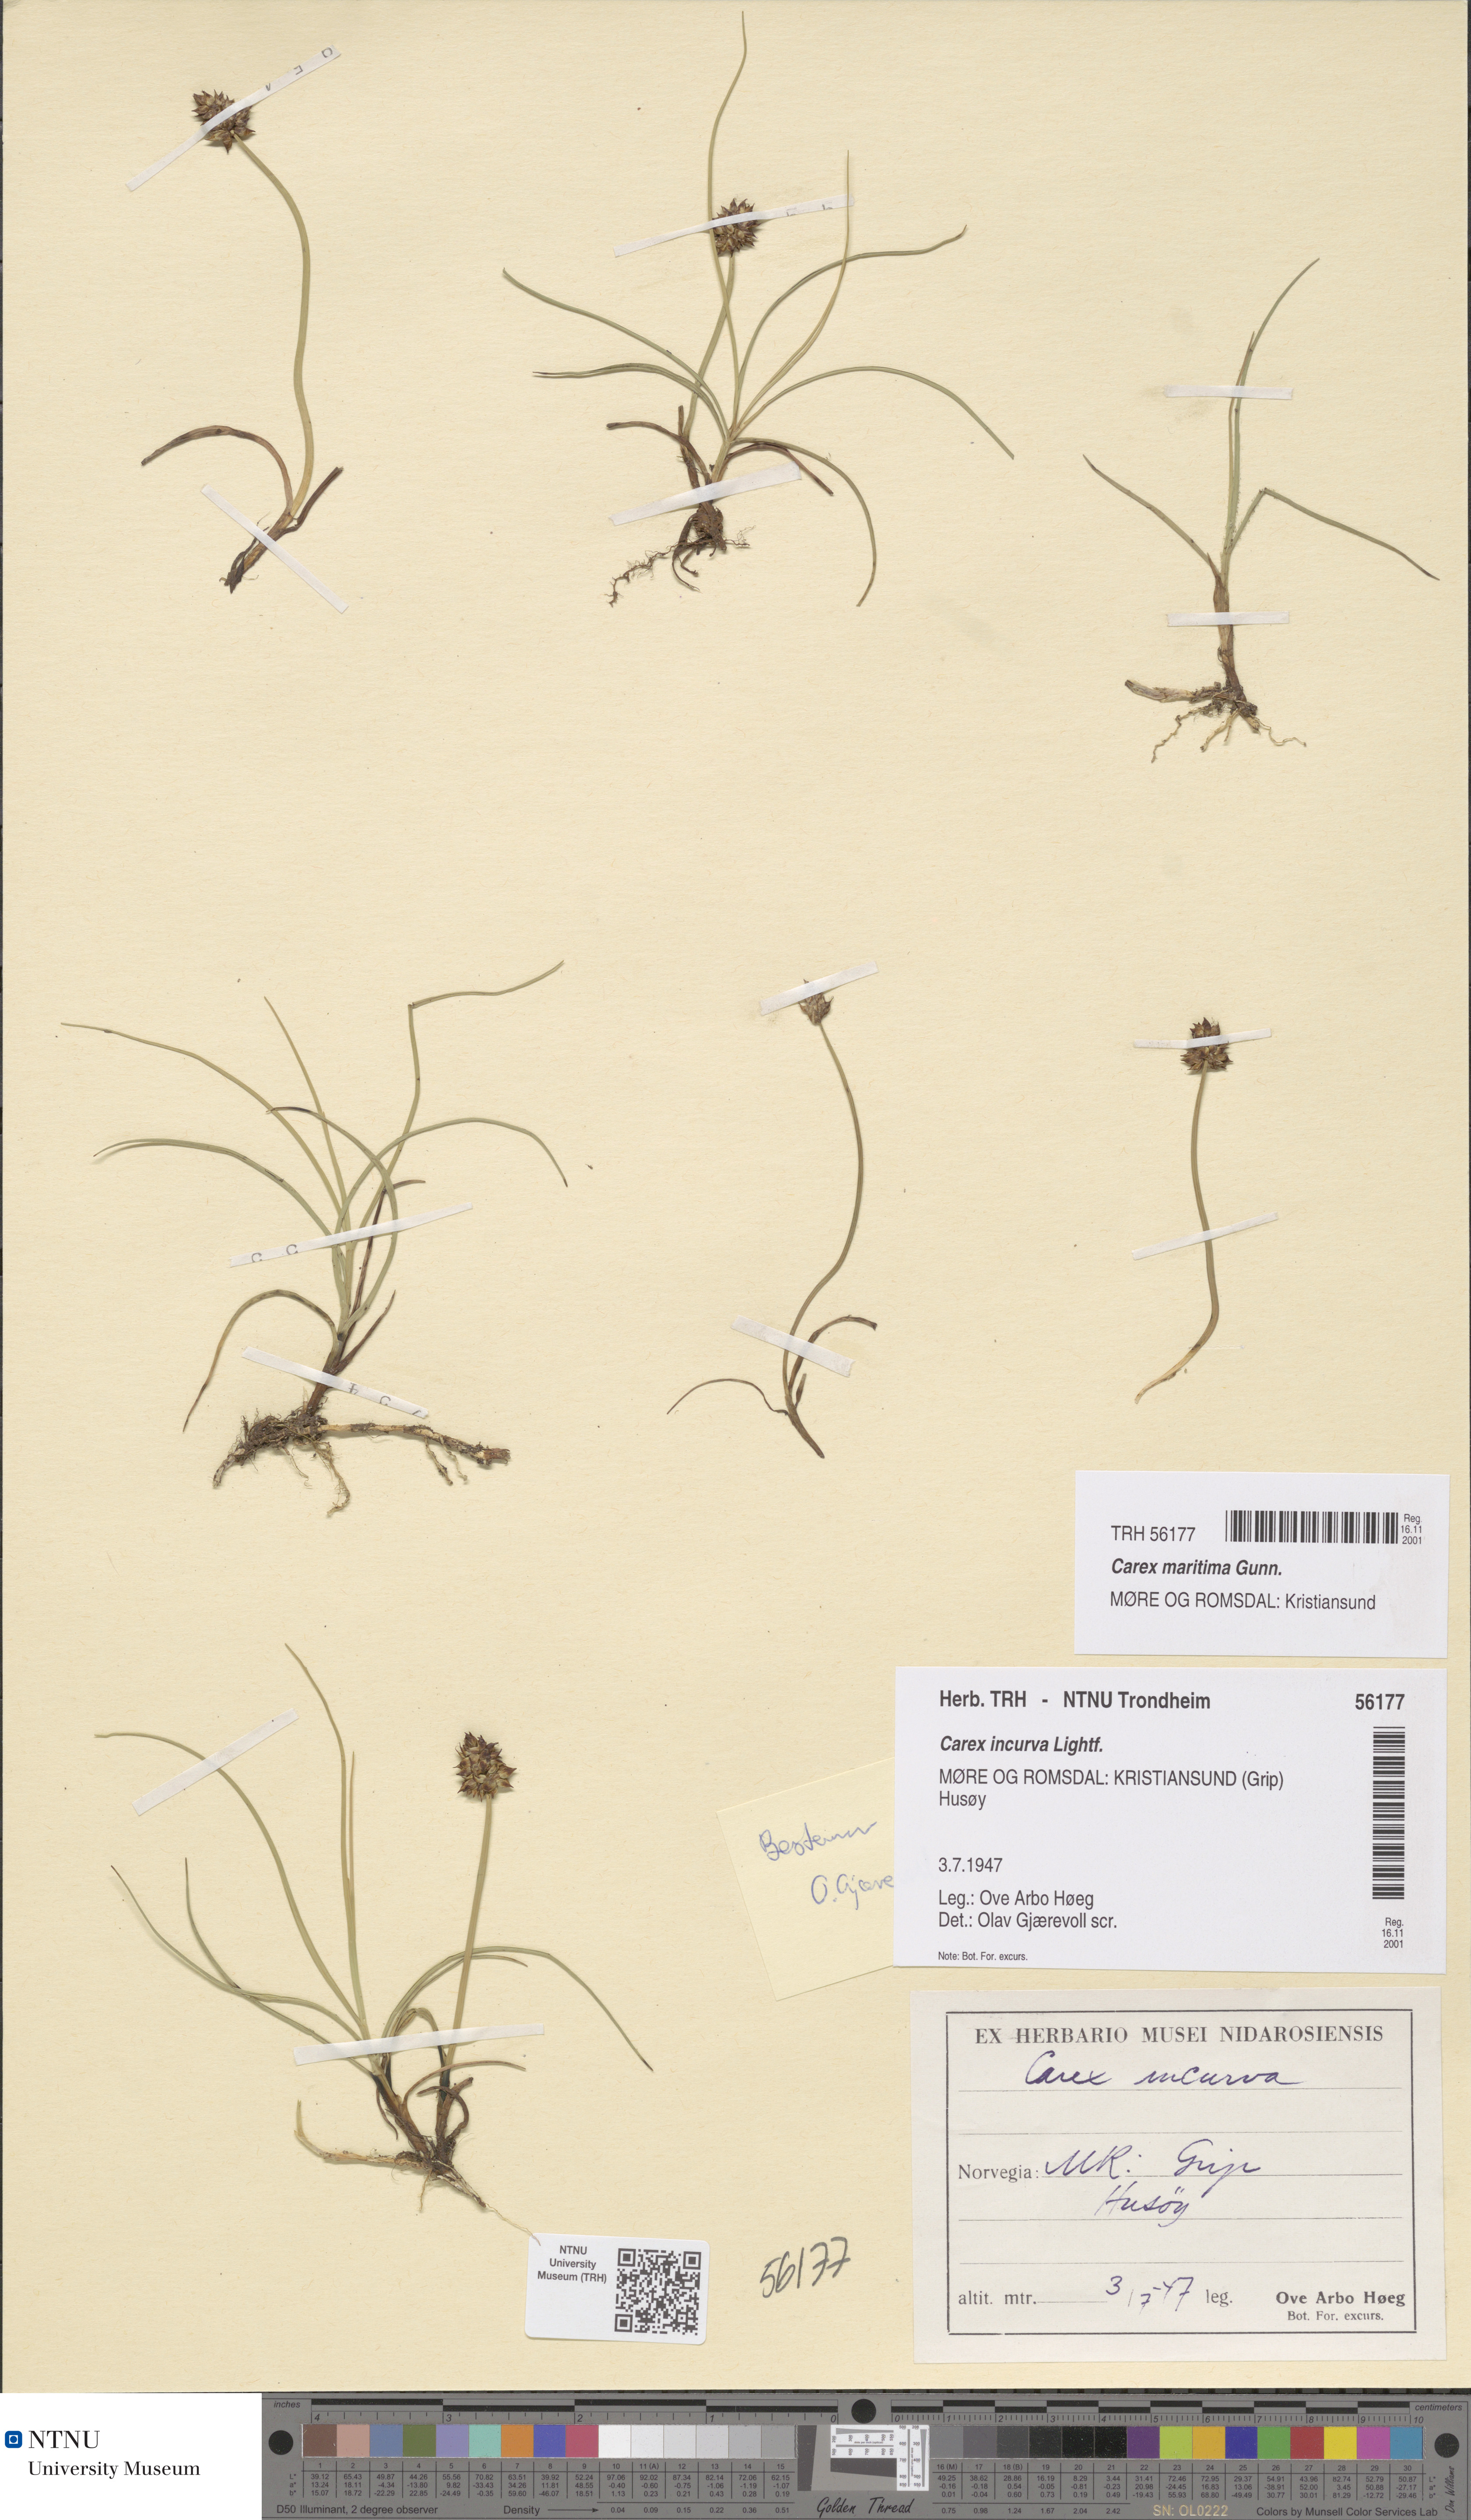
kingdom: Plantae
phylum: Tracheophyta
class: Liliopsida
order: Poales
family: Cyperaceae
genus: Carex
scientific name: Carex maritima
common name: Curved sedge
